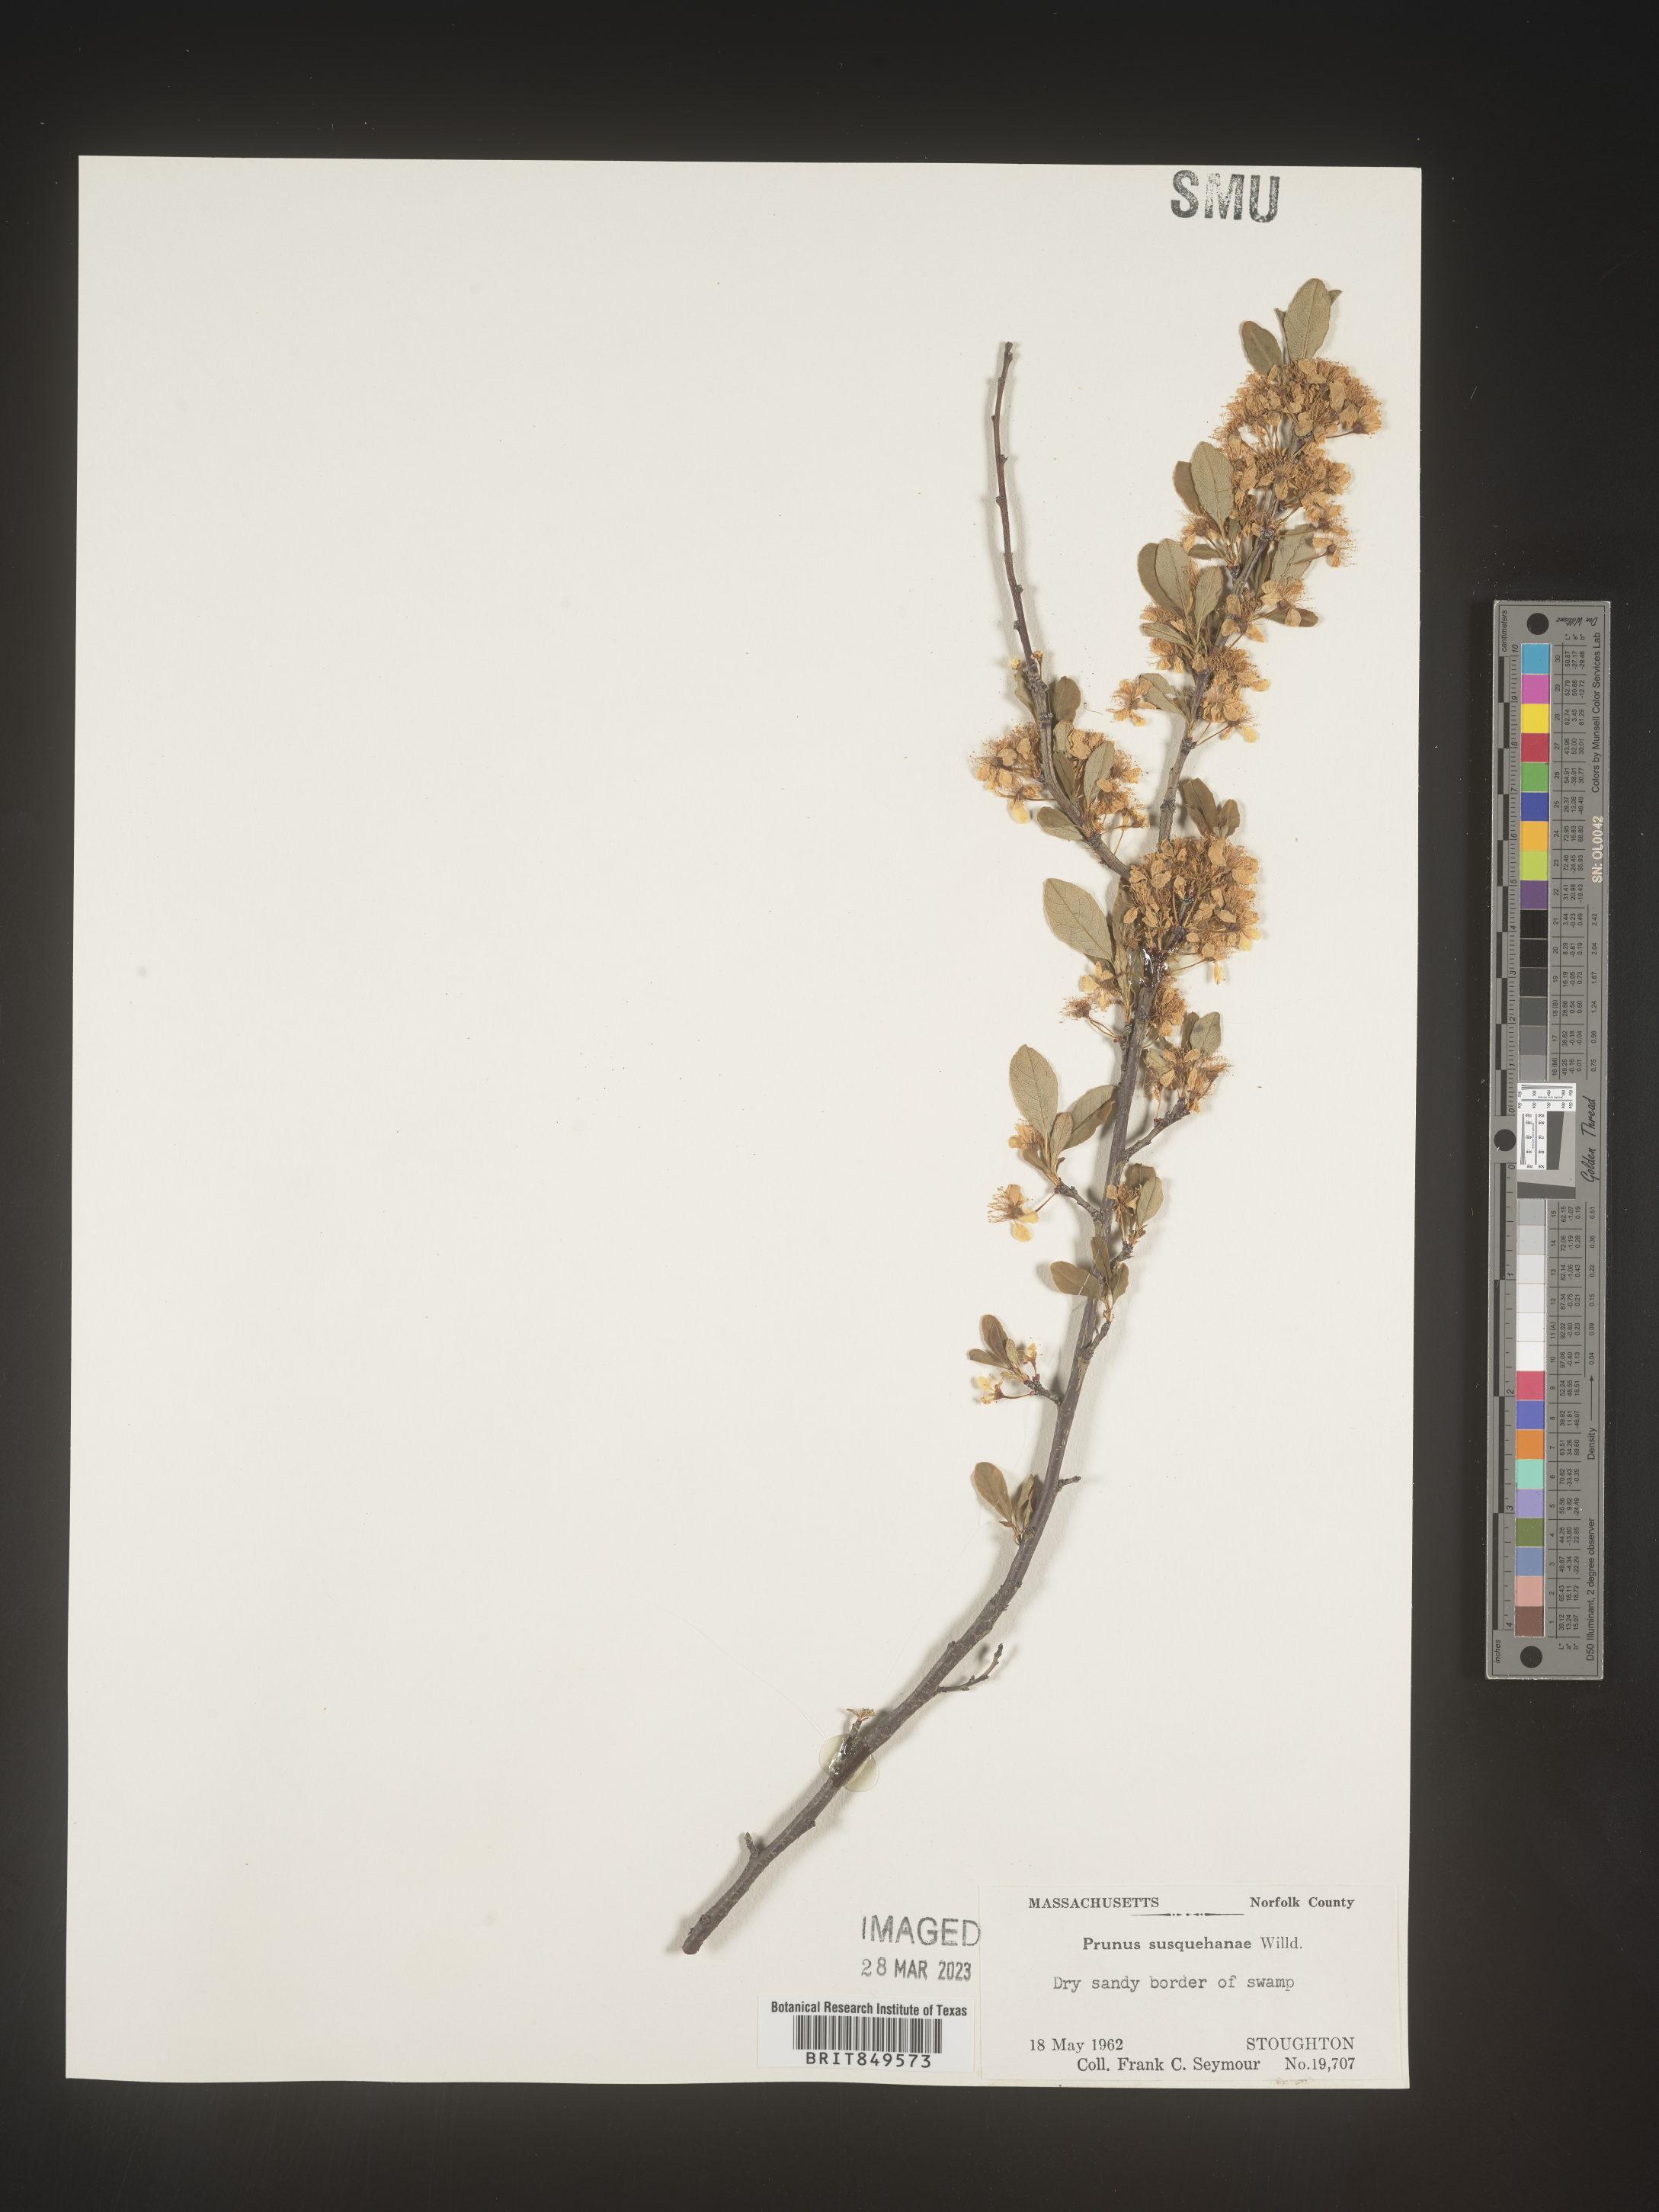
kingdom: Plantae
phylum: Tracheophyta
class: Magnoliopsida
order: Rosales
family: Rosaceae
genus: Prunus
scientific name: Prunus
